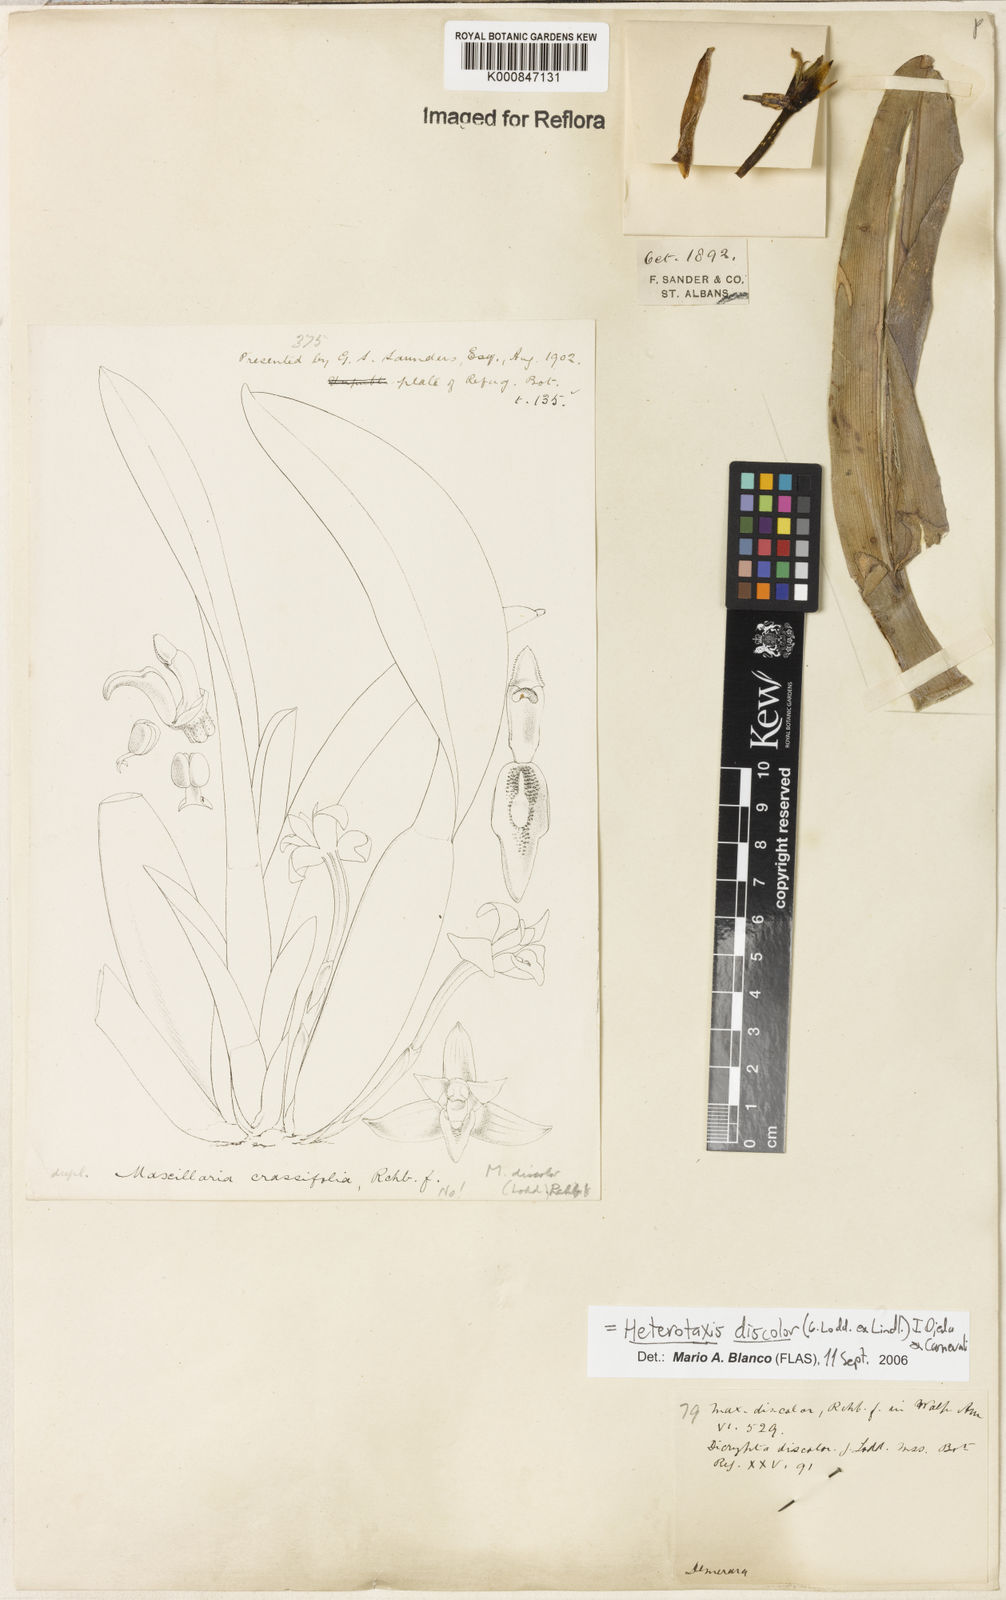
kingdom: Plantae
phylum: Tracheophyta
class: Liliopsida
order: Asparagales
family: Orchidaceae
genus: Maxillaria
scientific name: Maxillaria discolor
